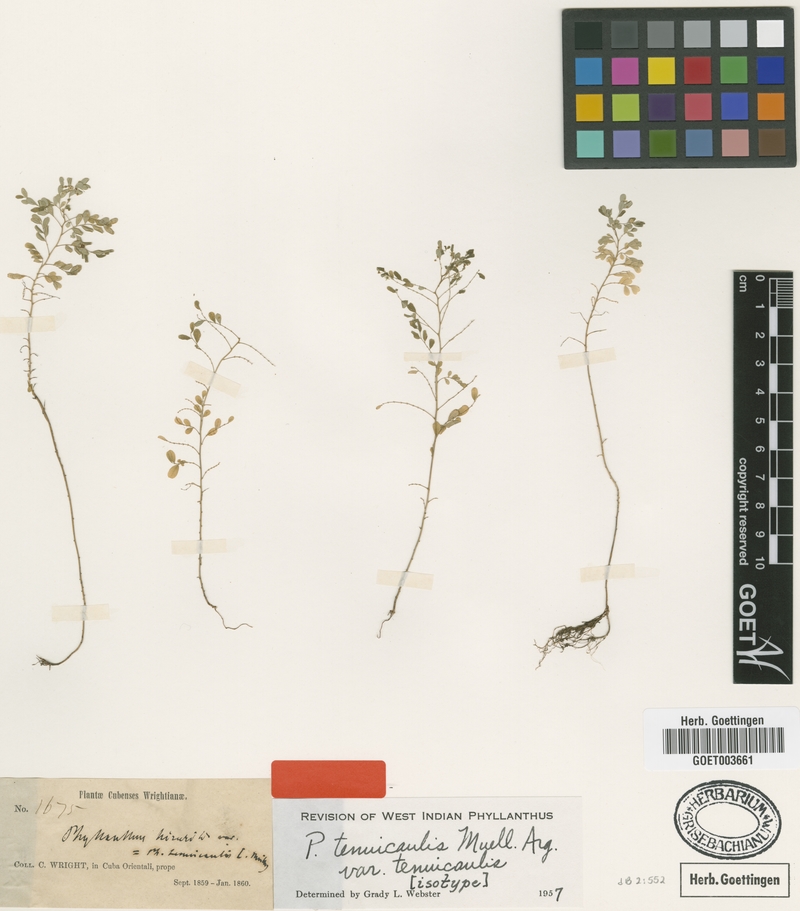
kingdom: Plantae
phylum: Tracheophyta
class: Magnoliopsida
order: Malpighiales
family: Phyllanthaceae
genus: Phyllanthus
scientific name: Phyllanthus tenuicaulis
